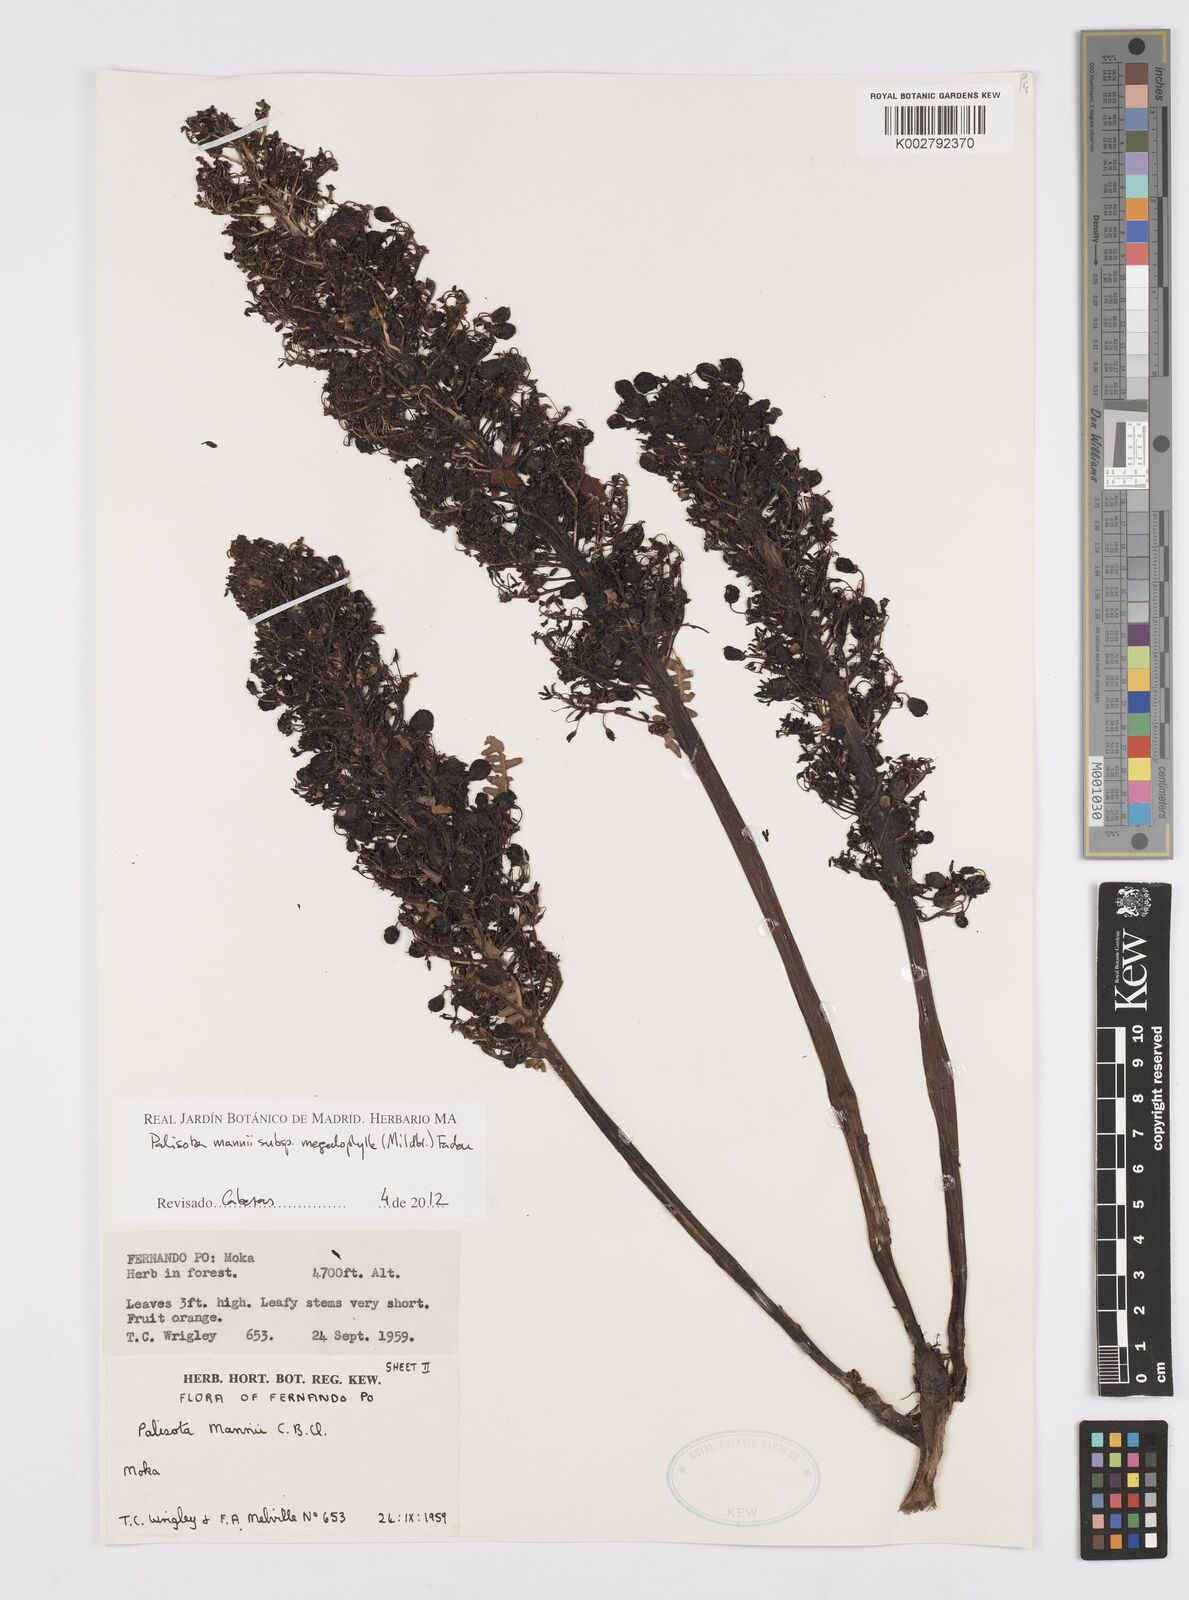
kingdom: Plantae
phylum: Tracheophyta
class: Liliopsida
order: Commelinales
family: Commelinaceae
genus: Palisota
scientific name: Palisota mannii
